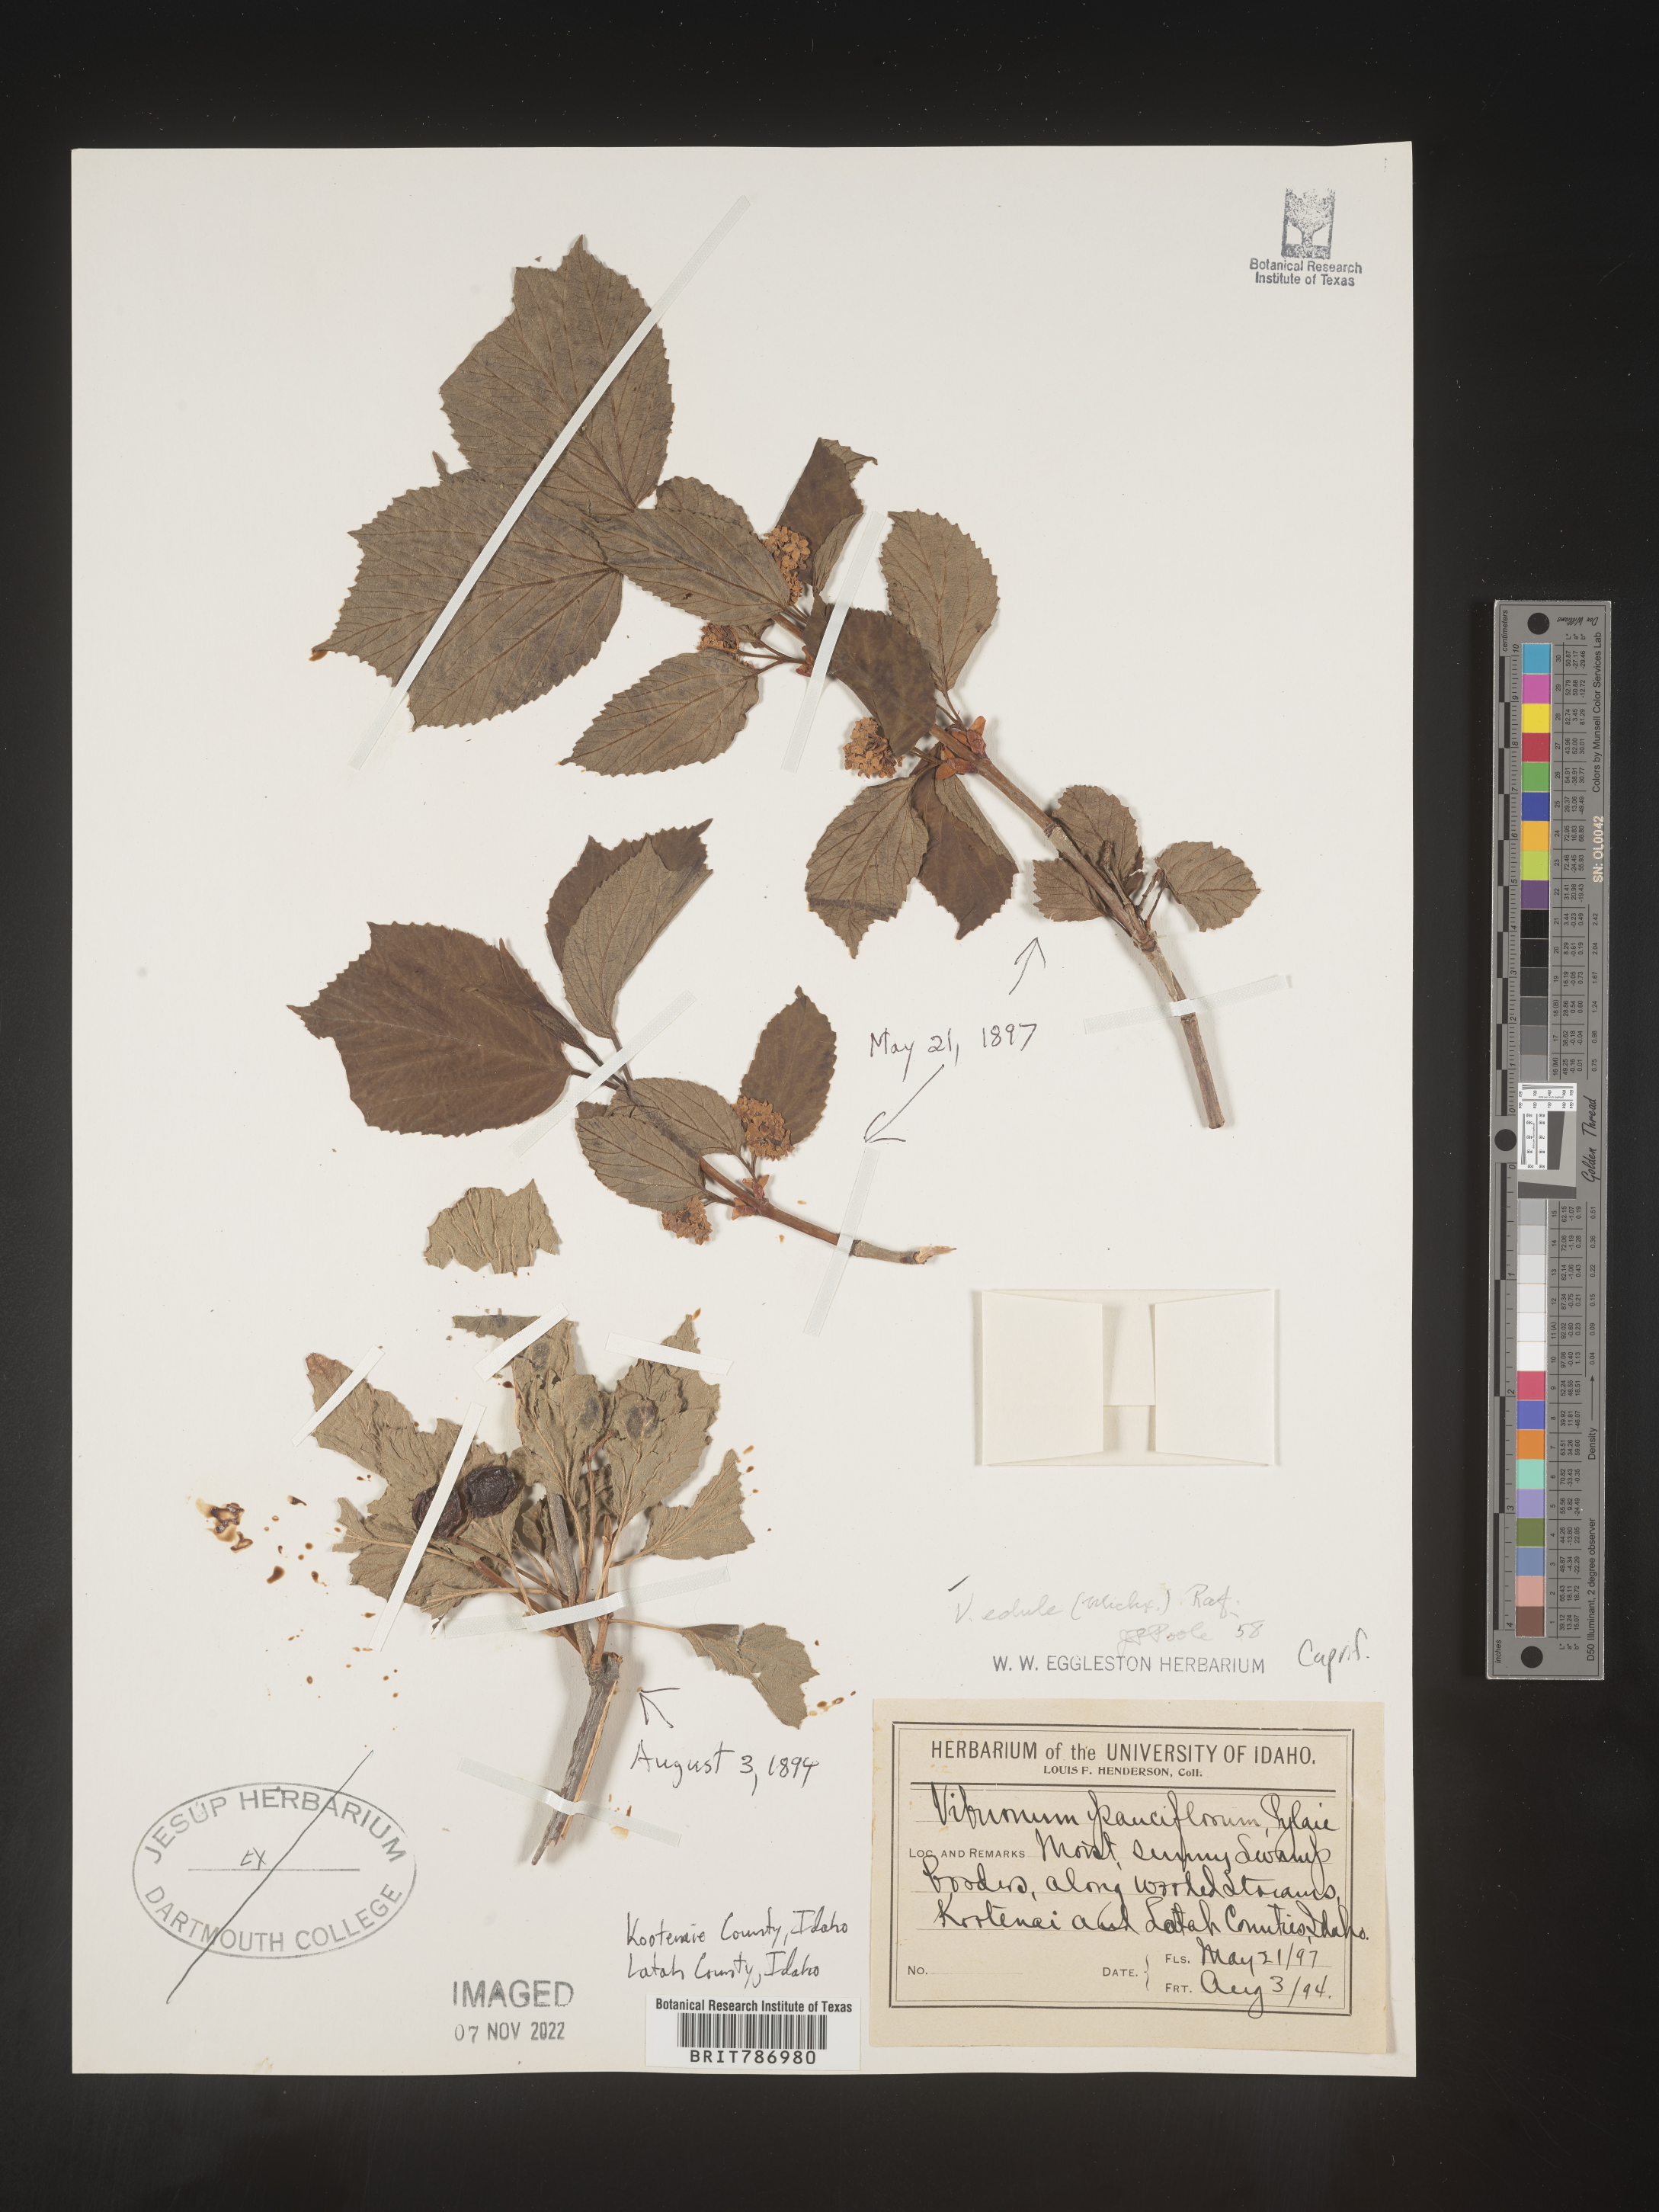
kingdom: Plantae
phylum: Tracheophyta
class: Magnoliopsida
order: Dipsacales
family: Viburnaceae
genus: Viburnum
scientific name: Viburnum edule
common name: Mooseberry
